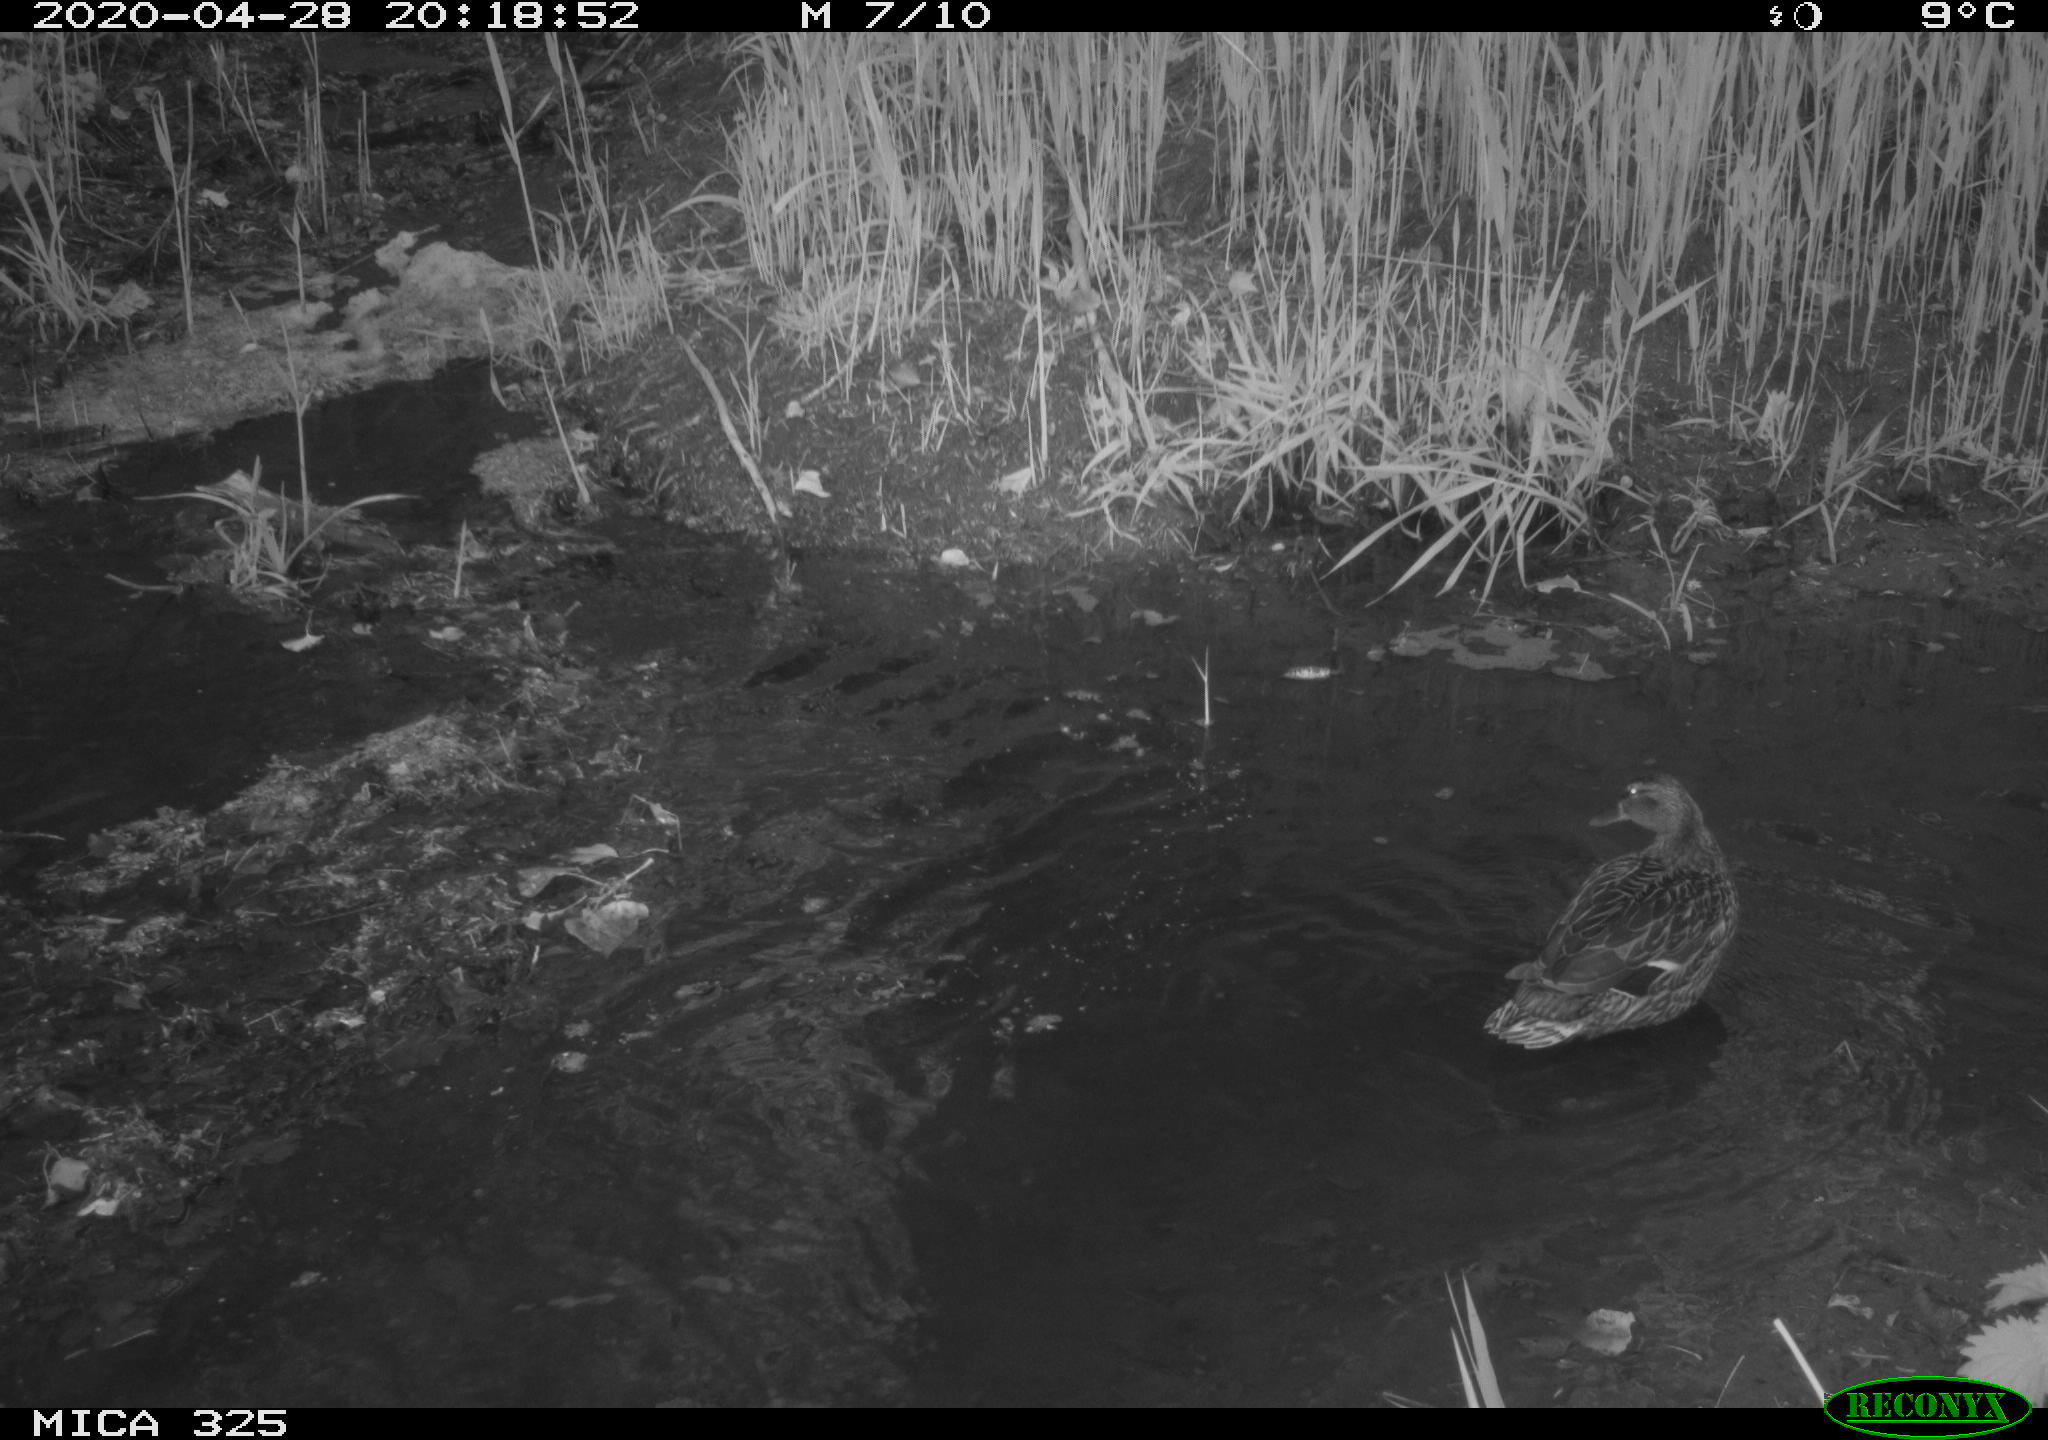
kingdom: Animalia
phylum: Chordata
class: Aves
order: Anseriformes
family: Anatidae
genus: Anas
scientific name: Anas platyrhynchos
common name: Mallard
